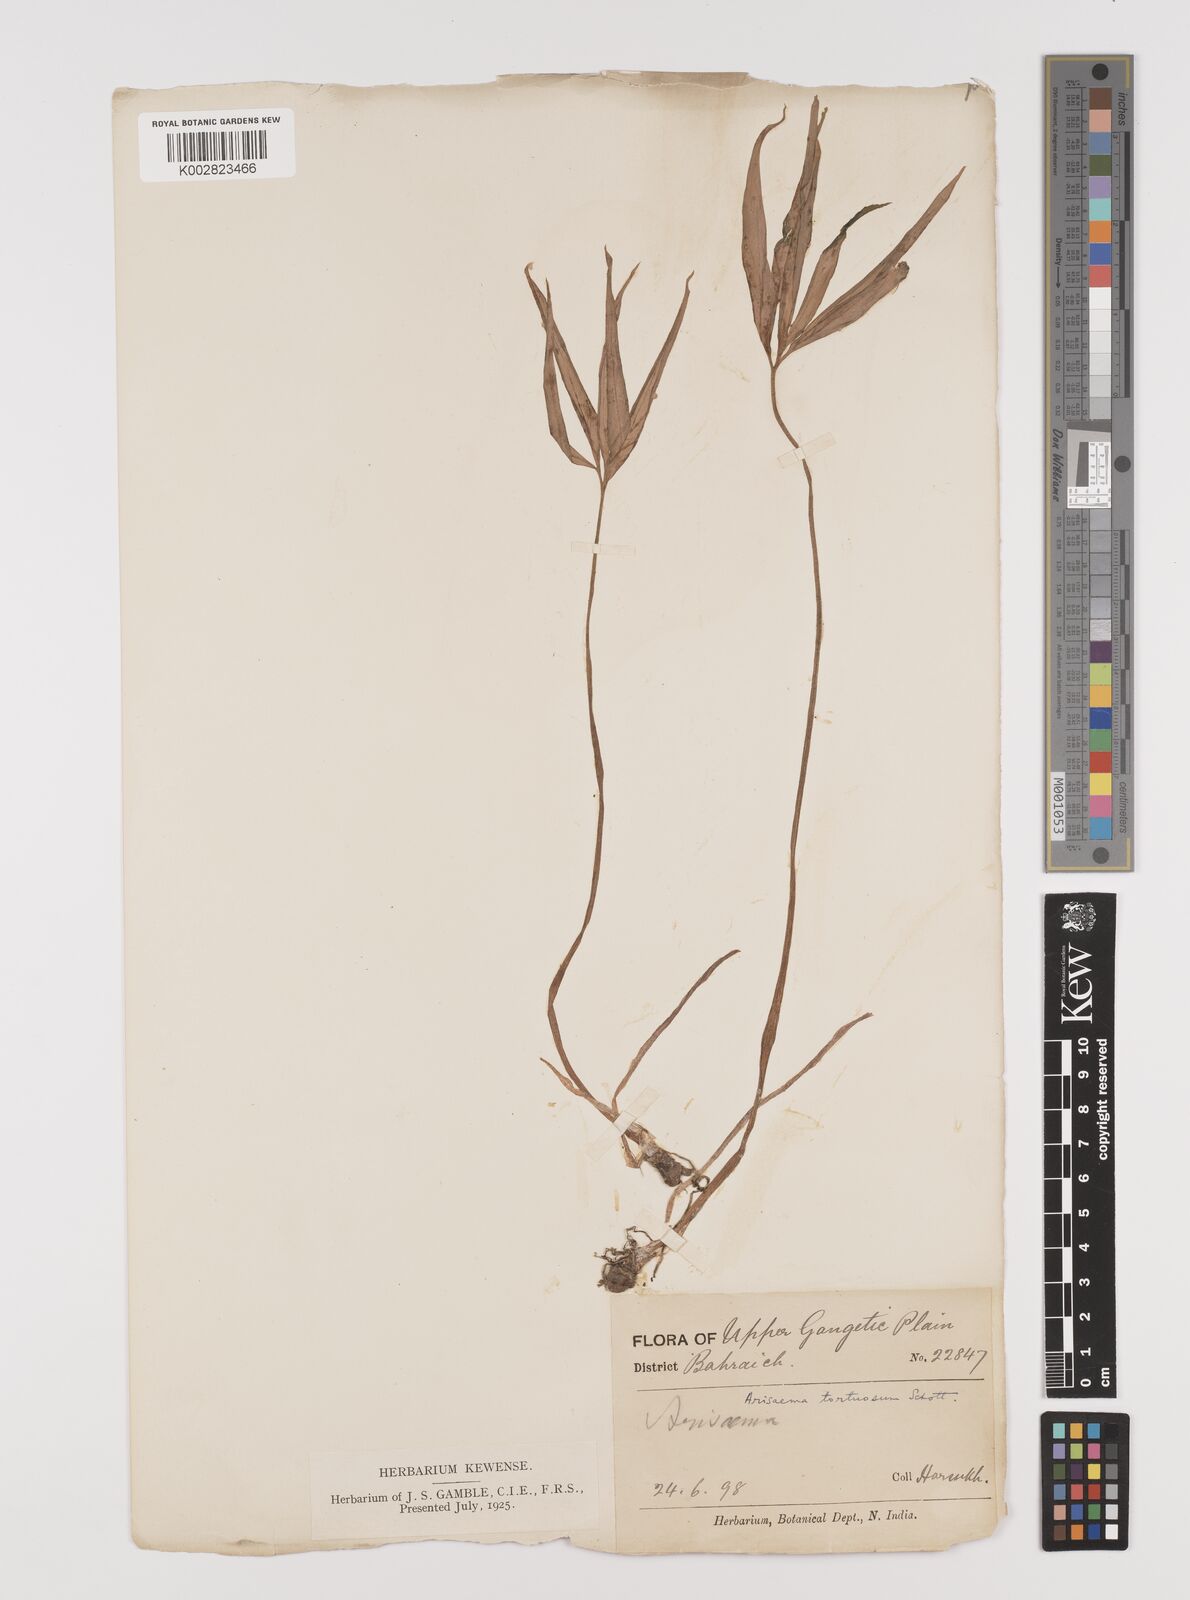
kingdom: Plantae
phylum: Tracheophyta
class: Liliopsida
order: Alismatales
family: Araceae
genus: Arisaema
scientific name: Arisaema
